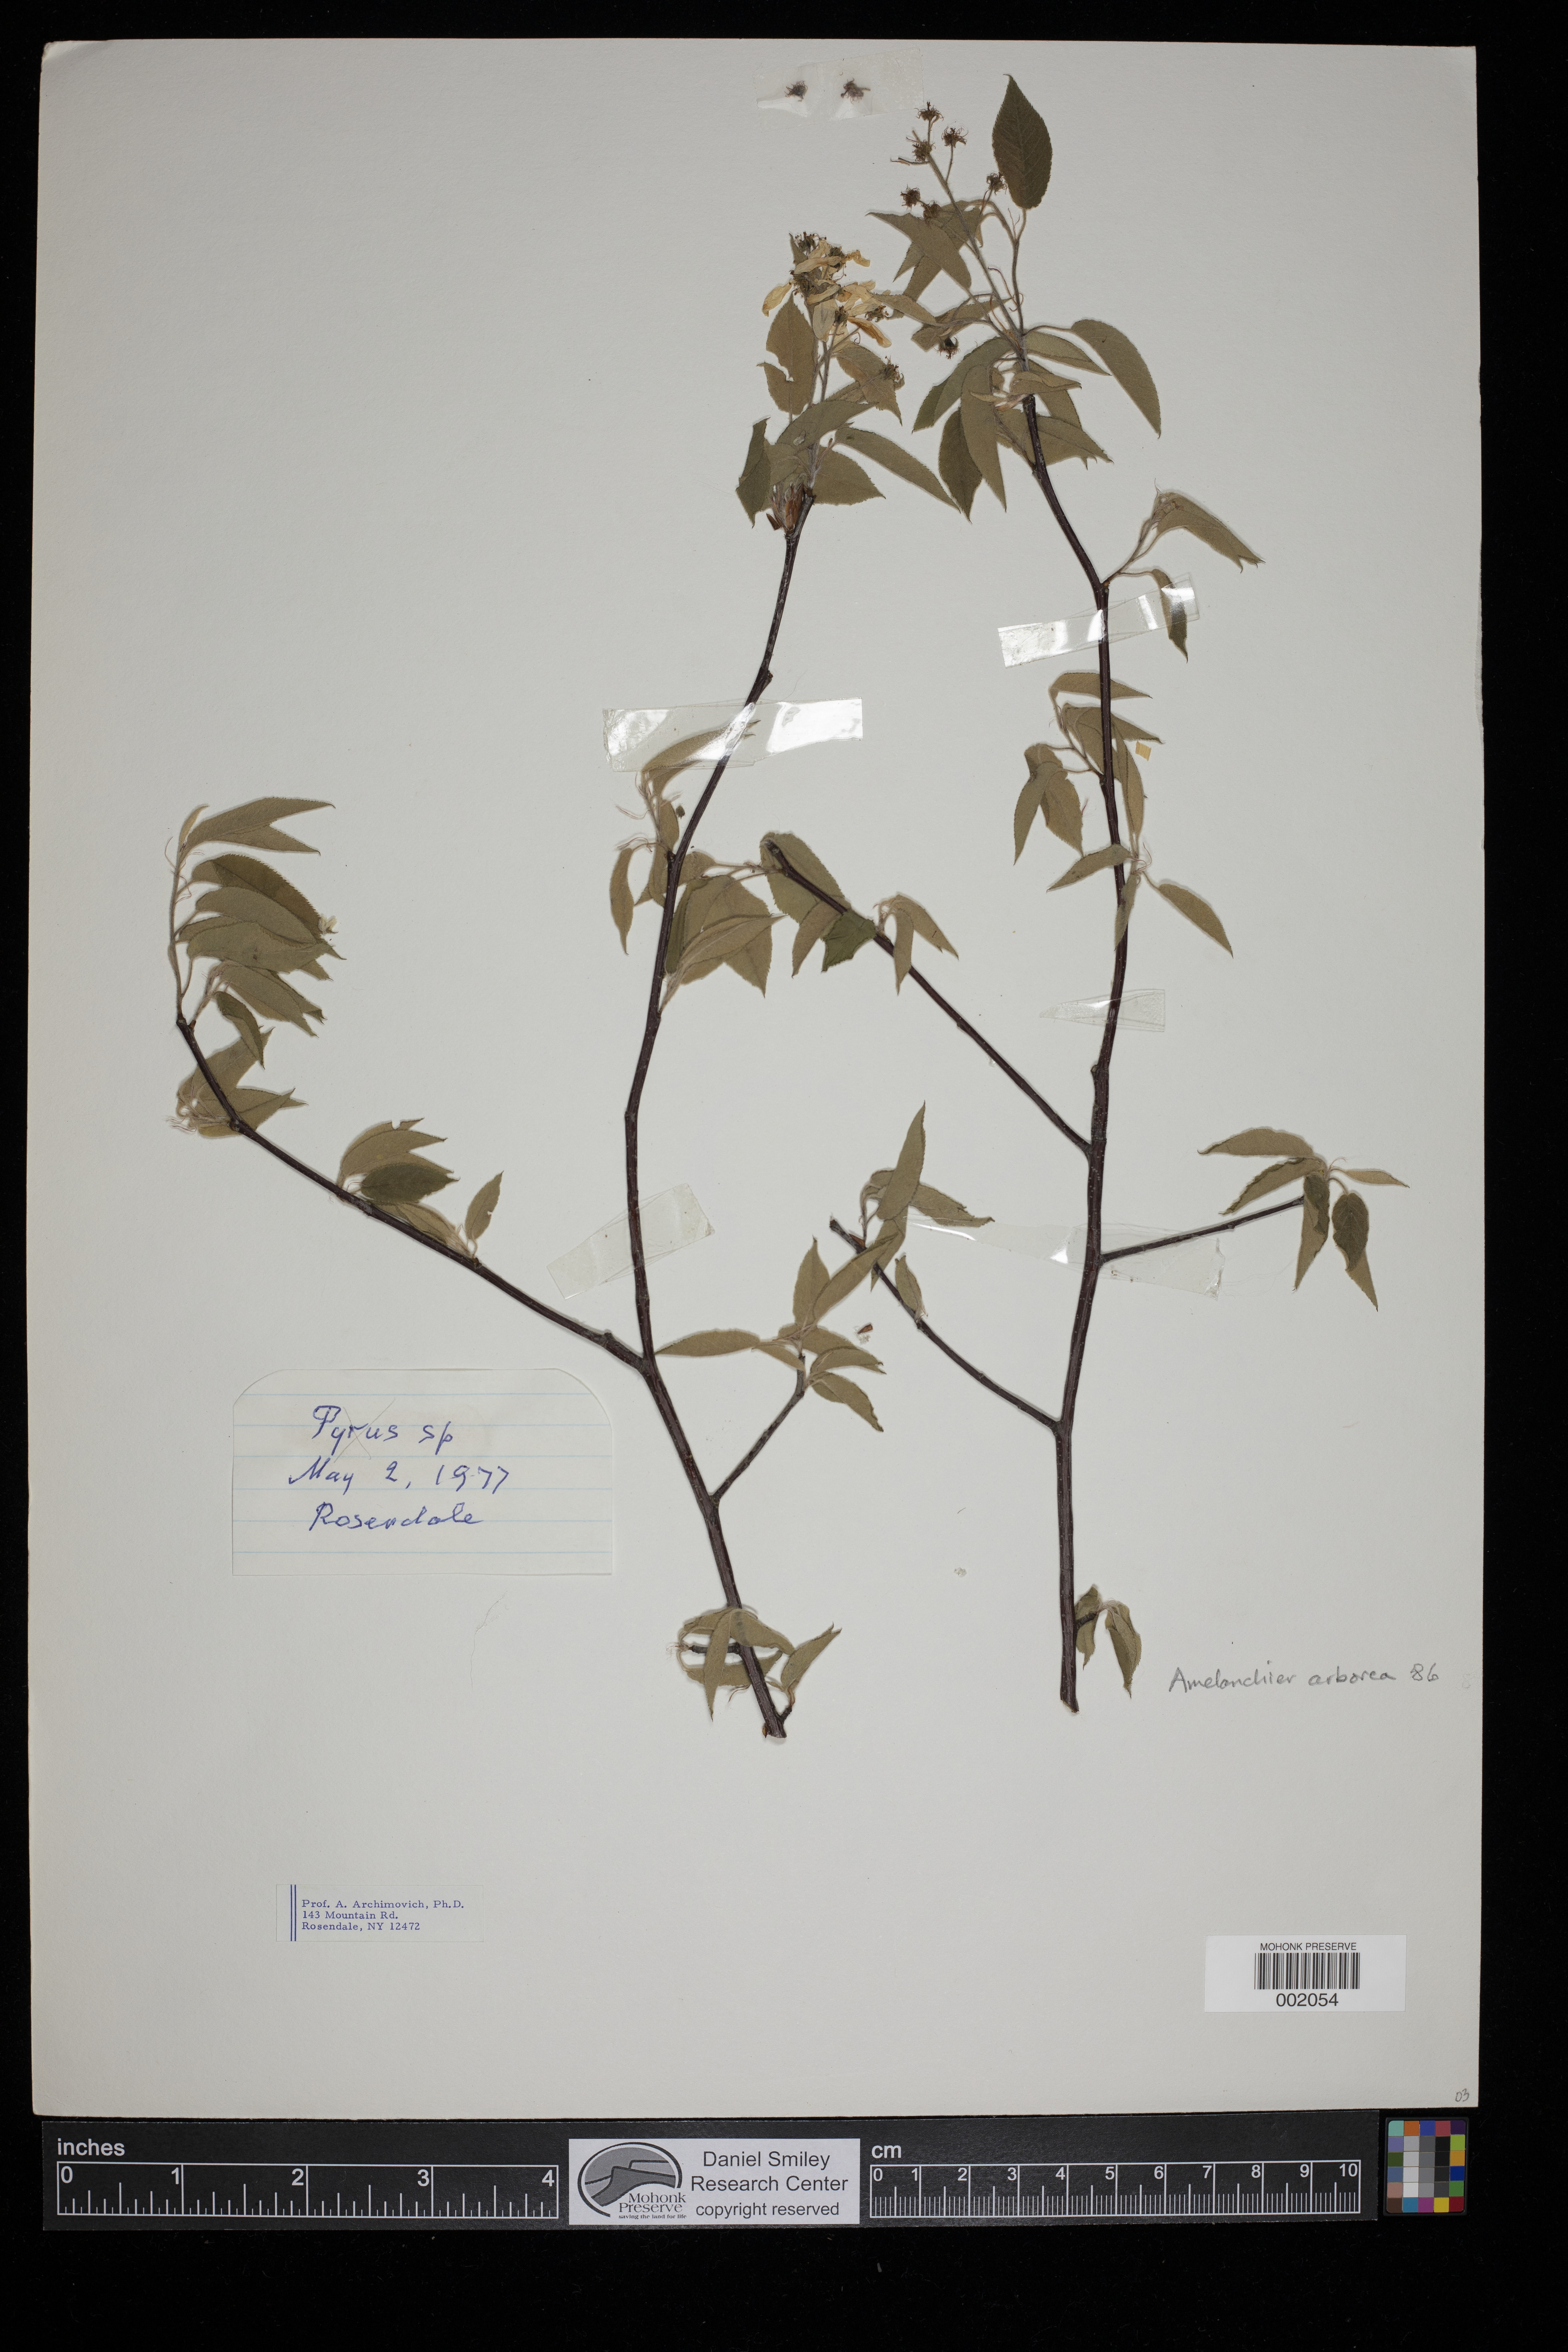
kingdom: Plantae
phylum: Tracheophyta
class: Magnoliopsida
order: Rosales
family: Rosaceae
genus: Amelanchier
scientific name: Amelanchier arborea
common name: Downy serviceberry
